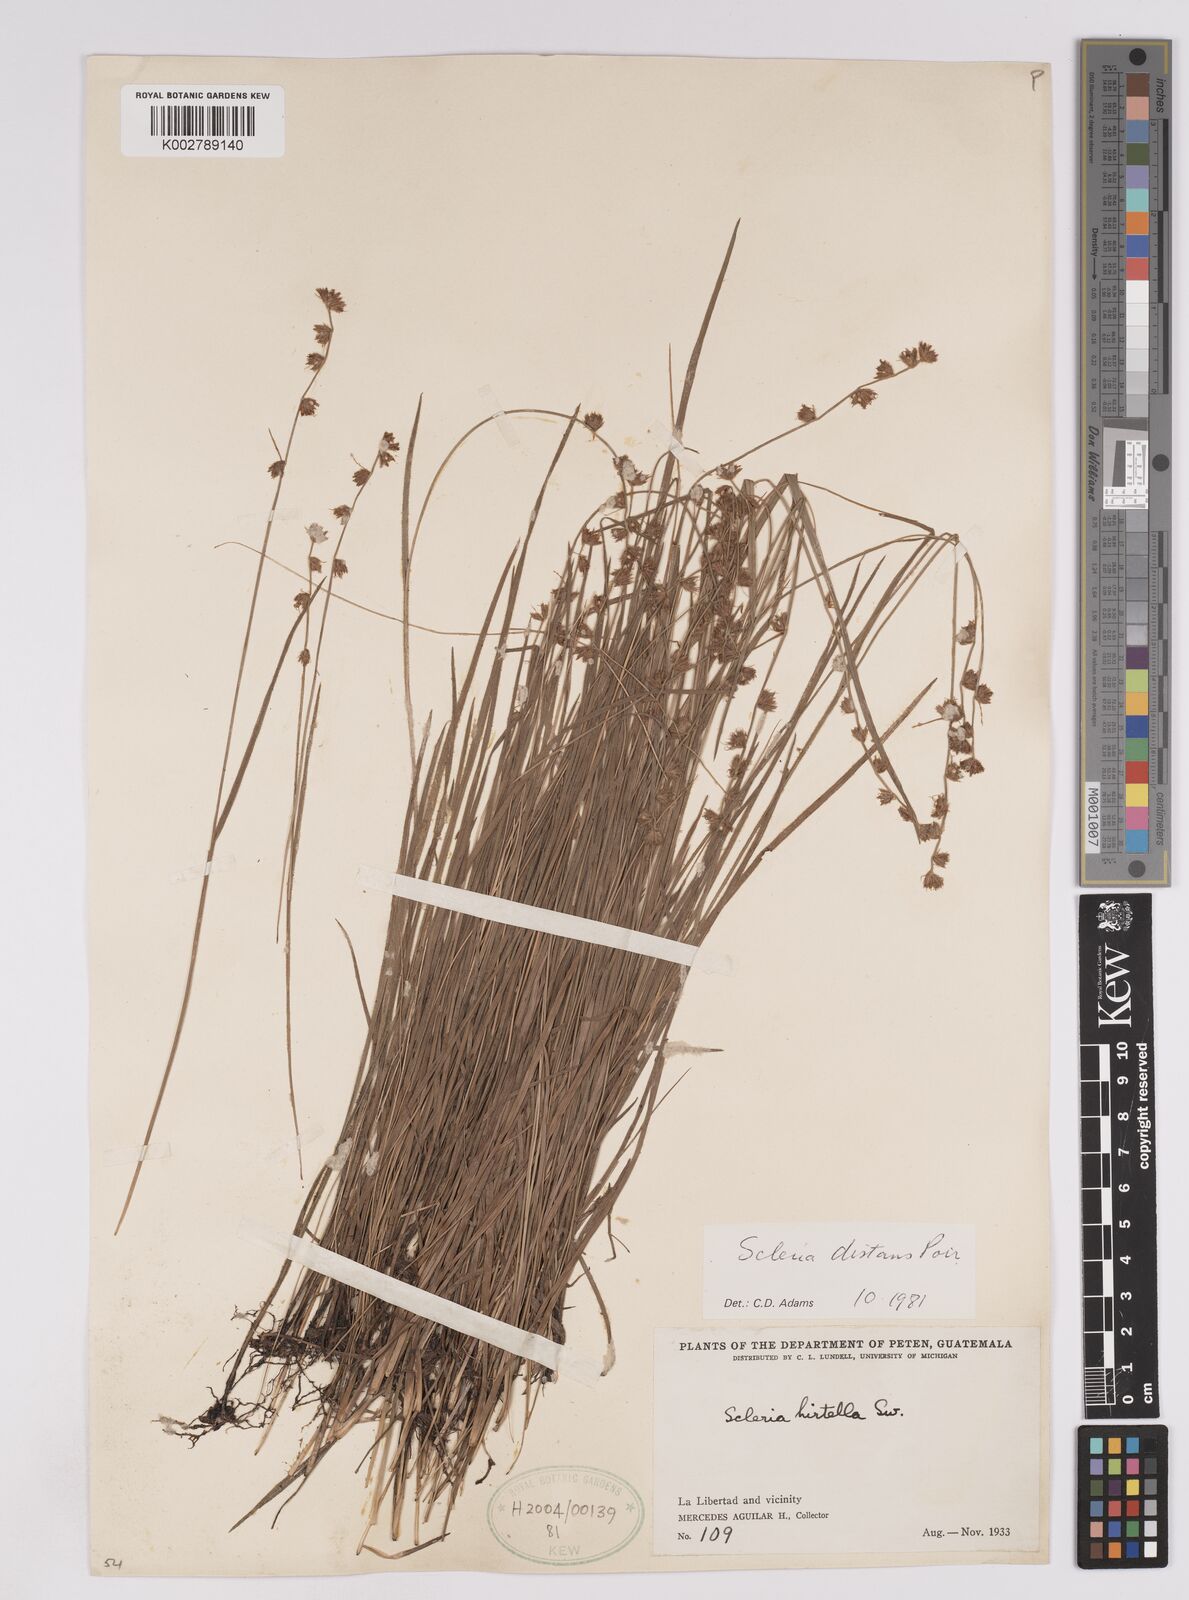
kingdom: Plantae
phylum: Tracheophyta
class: Liliopsida
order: Poales
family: Cyperaceae
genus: Scleria
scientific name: Scleria distans
